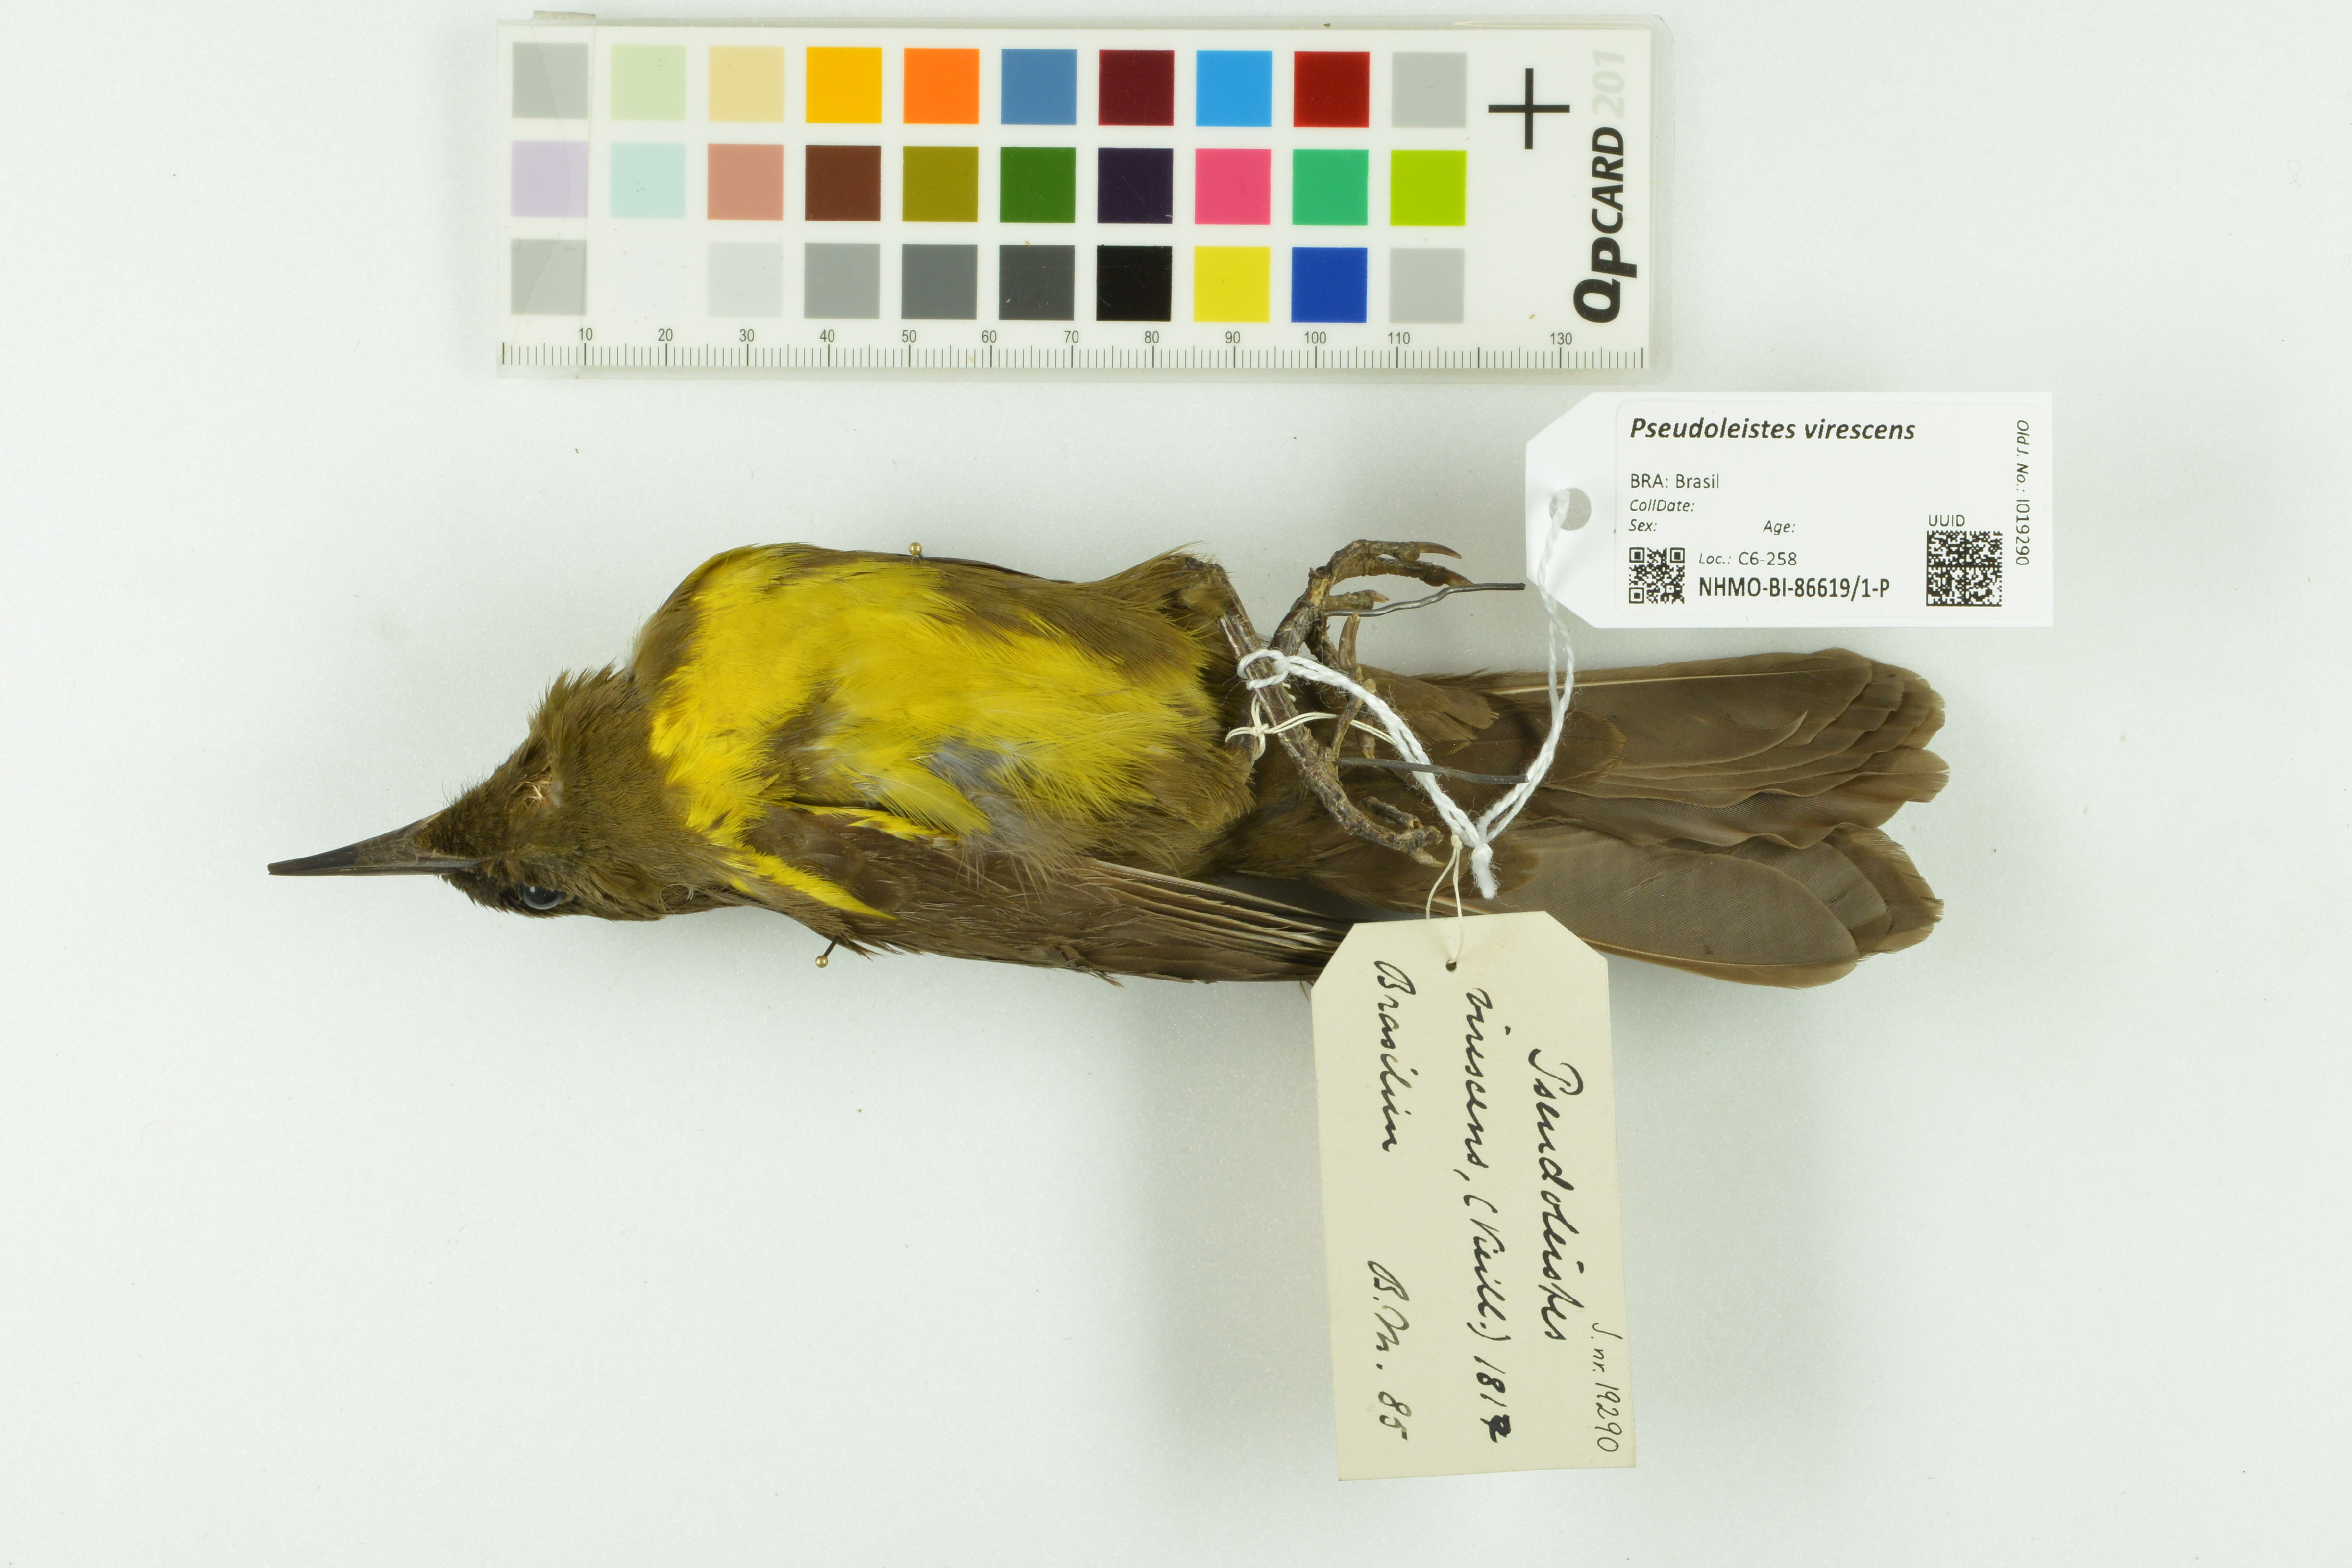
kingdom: Animalia
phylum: Chordata
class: Aves
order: Passeriformes
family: Icteridae
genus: Pseudoleistes
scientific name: Pseudoleistes virescens
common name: Brown-and-yellow marshbird
